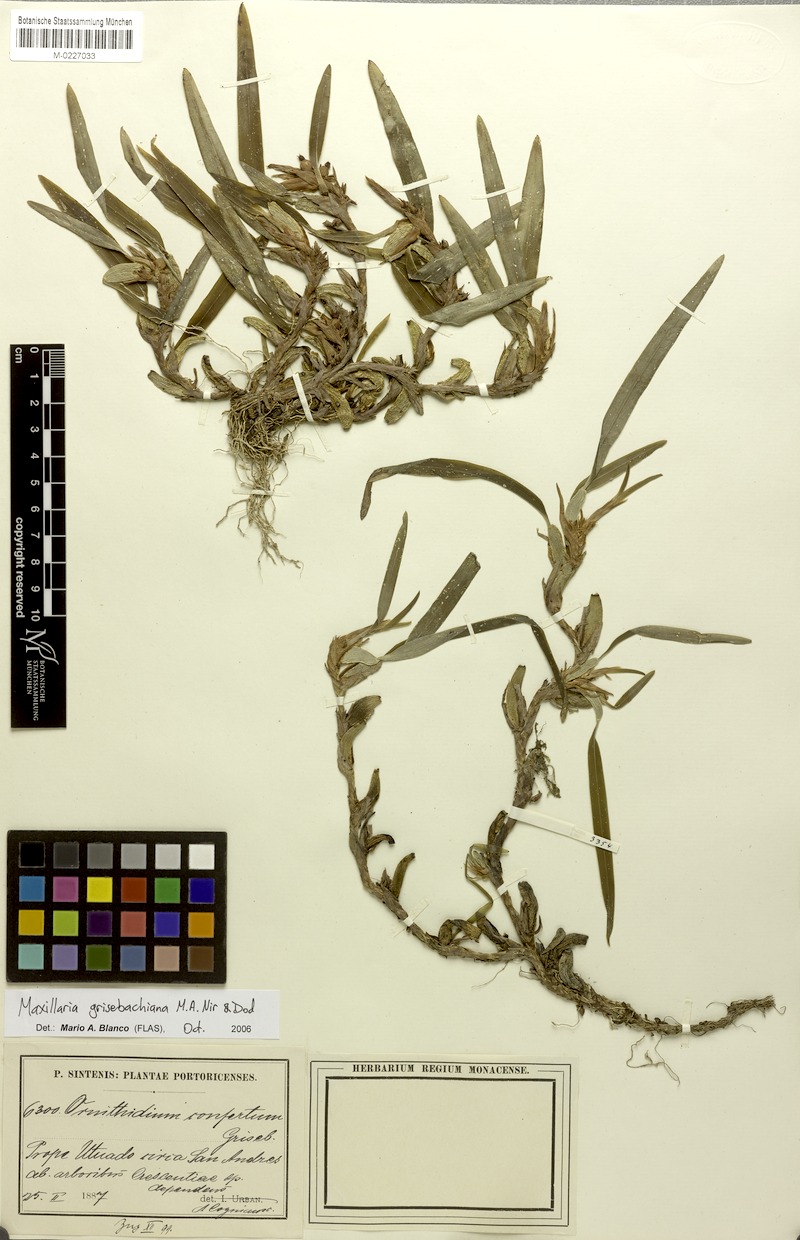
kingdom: Plantae
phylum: Tracheophyta
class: Liliopsida
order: Asparagales
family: Orchidaceae
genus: Maxillaria
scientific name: Maxillaria grisebachiana
